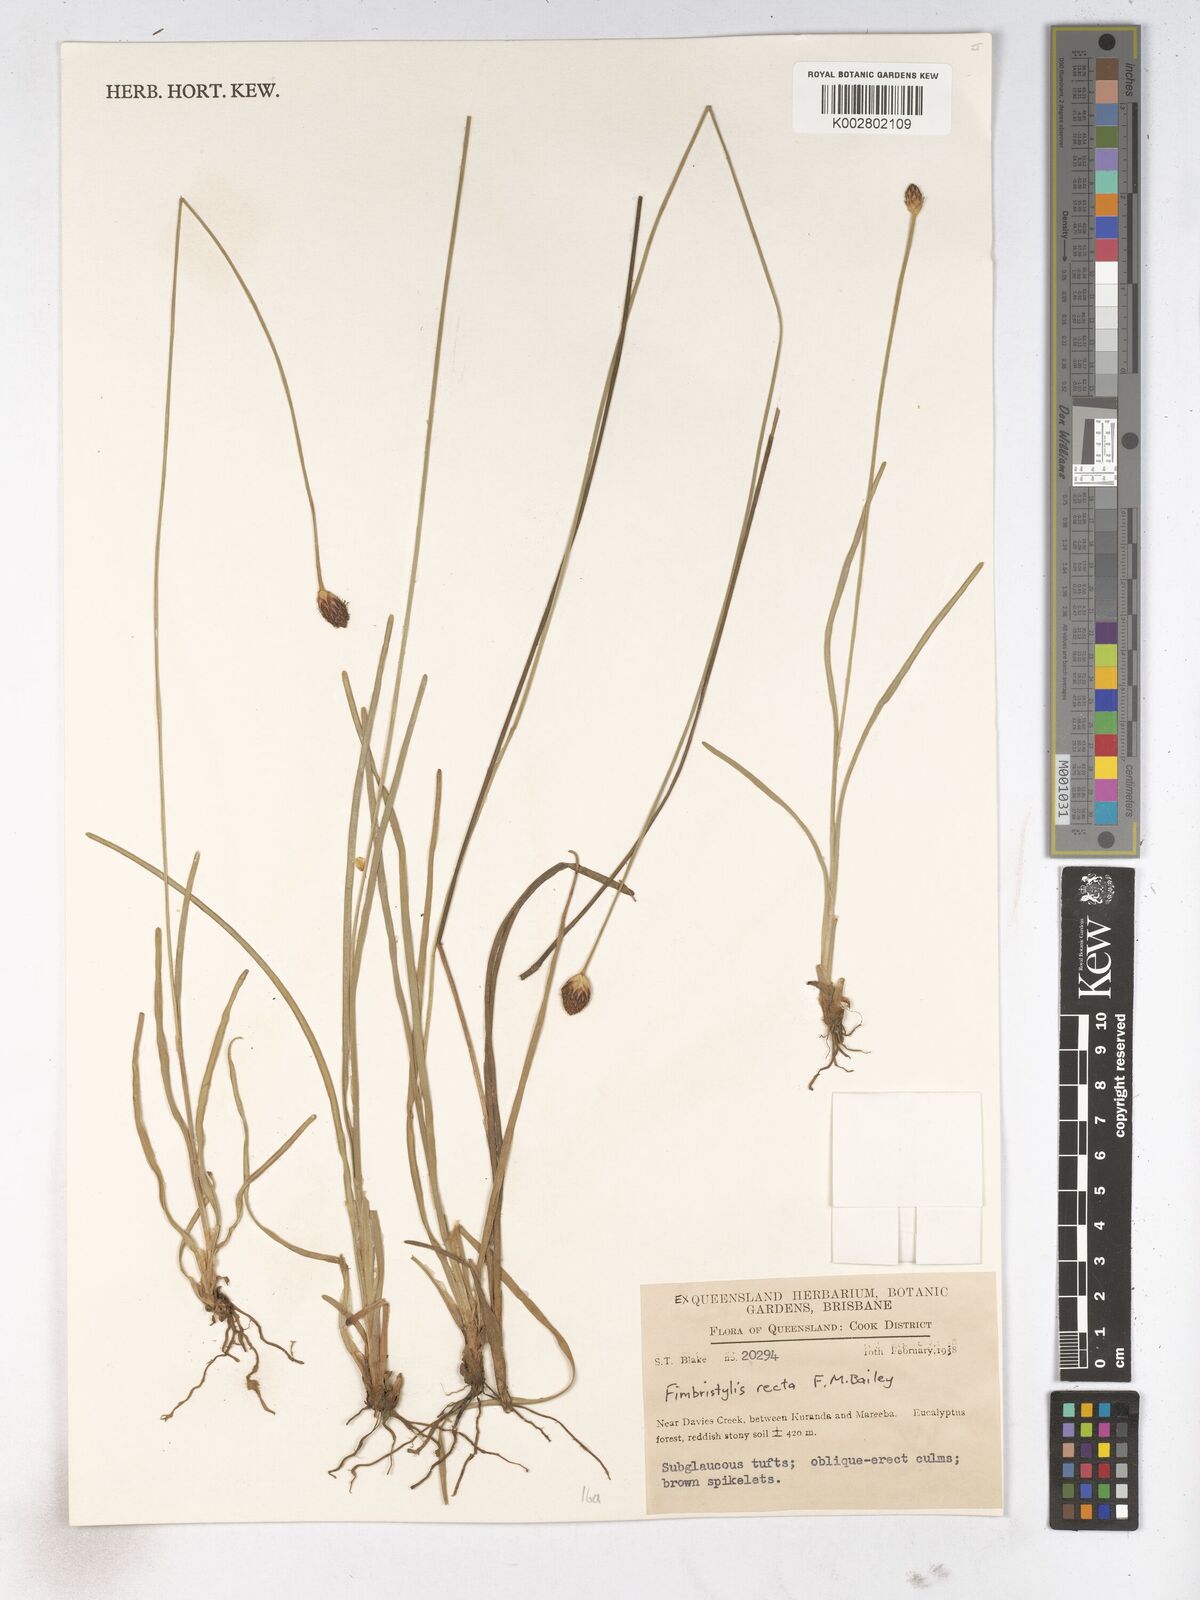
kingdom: Plantae
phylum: Tracheophyta
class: Liliopsida
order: Poales
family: Cyperaceae
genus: Fimbristylis
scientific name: Fimbristylis recta
